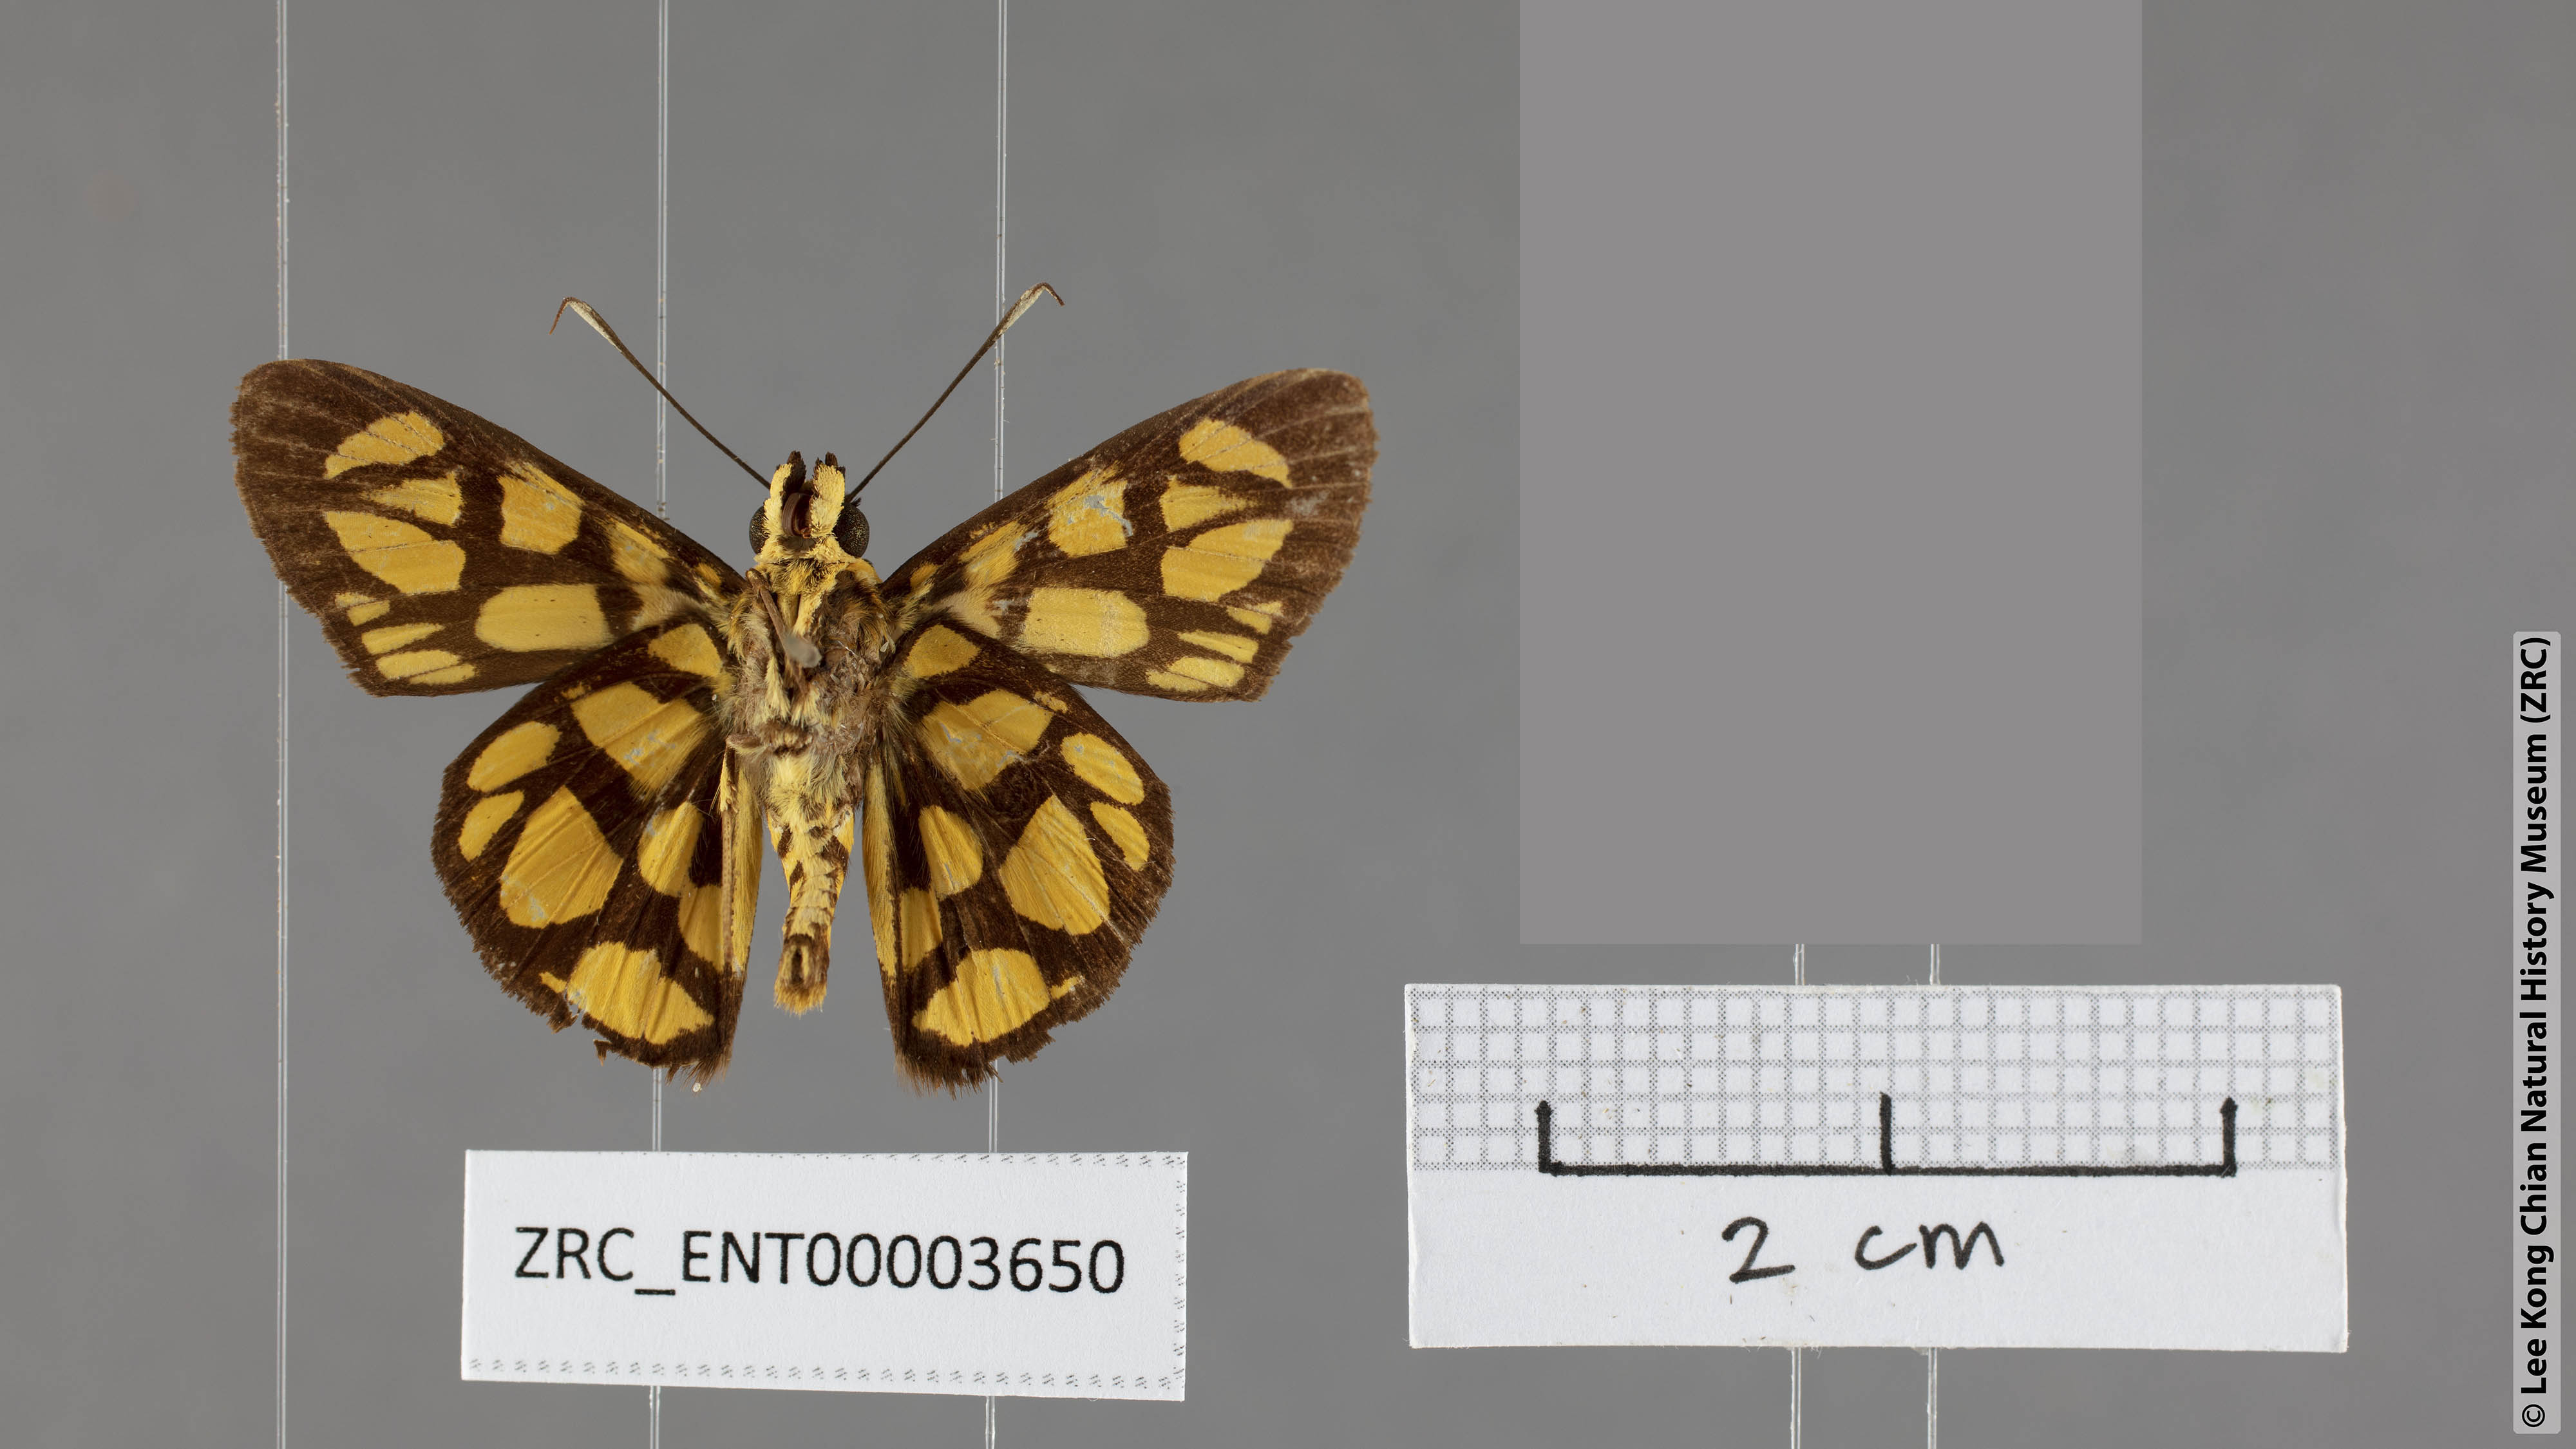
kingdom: Animalia
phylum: Arthropoda
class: Insecta
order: Lepidoptera
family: Hesperiidae
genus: Odina
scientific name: Odina hieroglyphica
